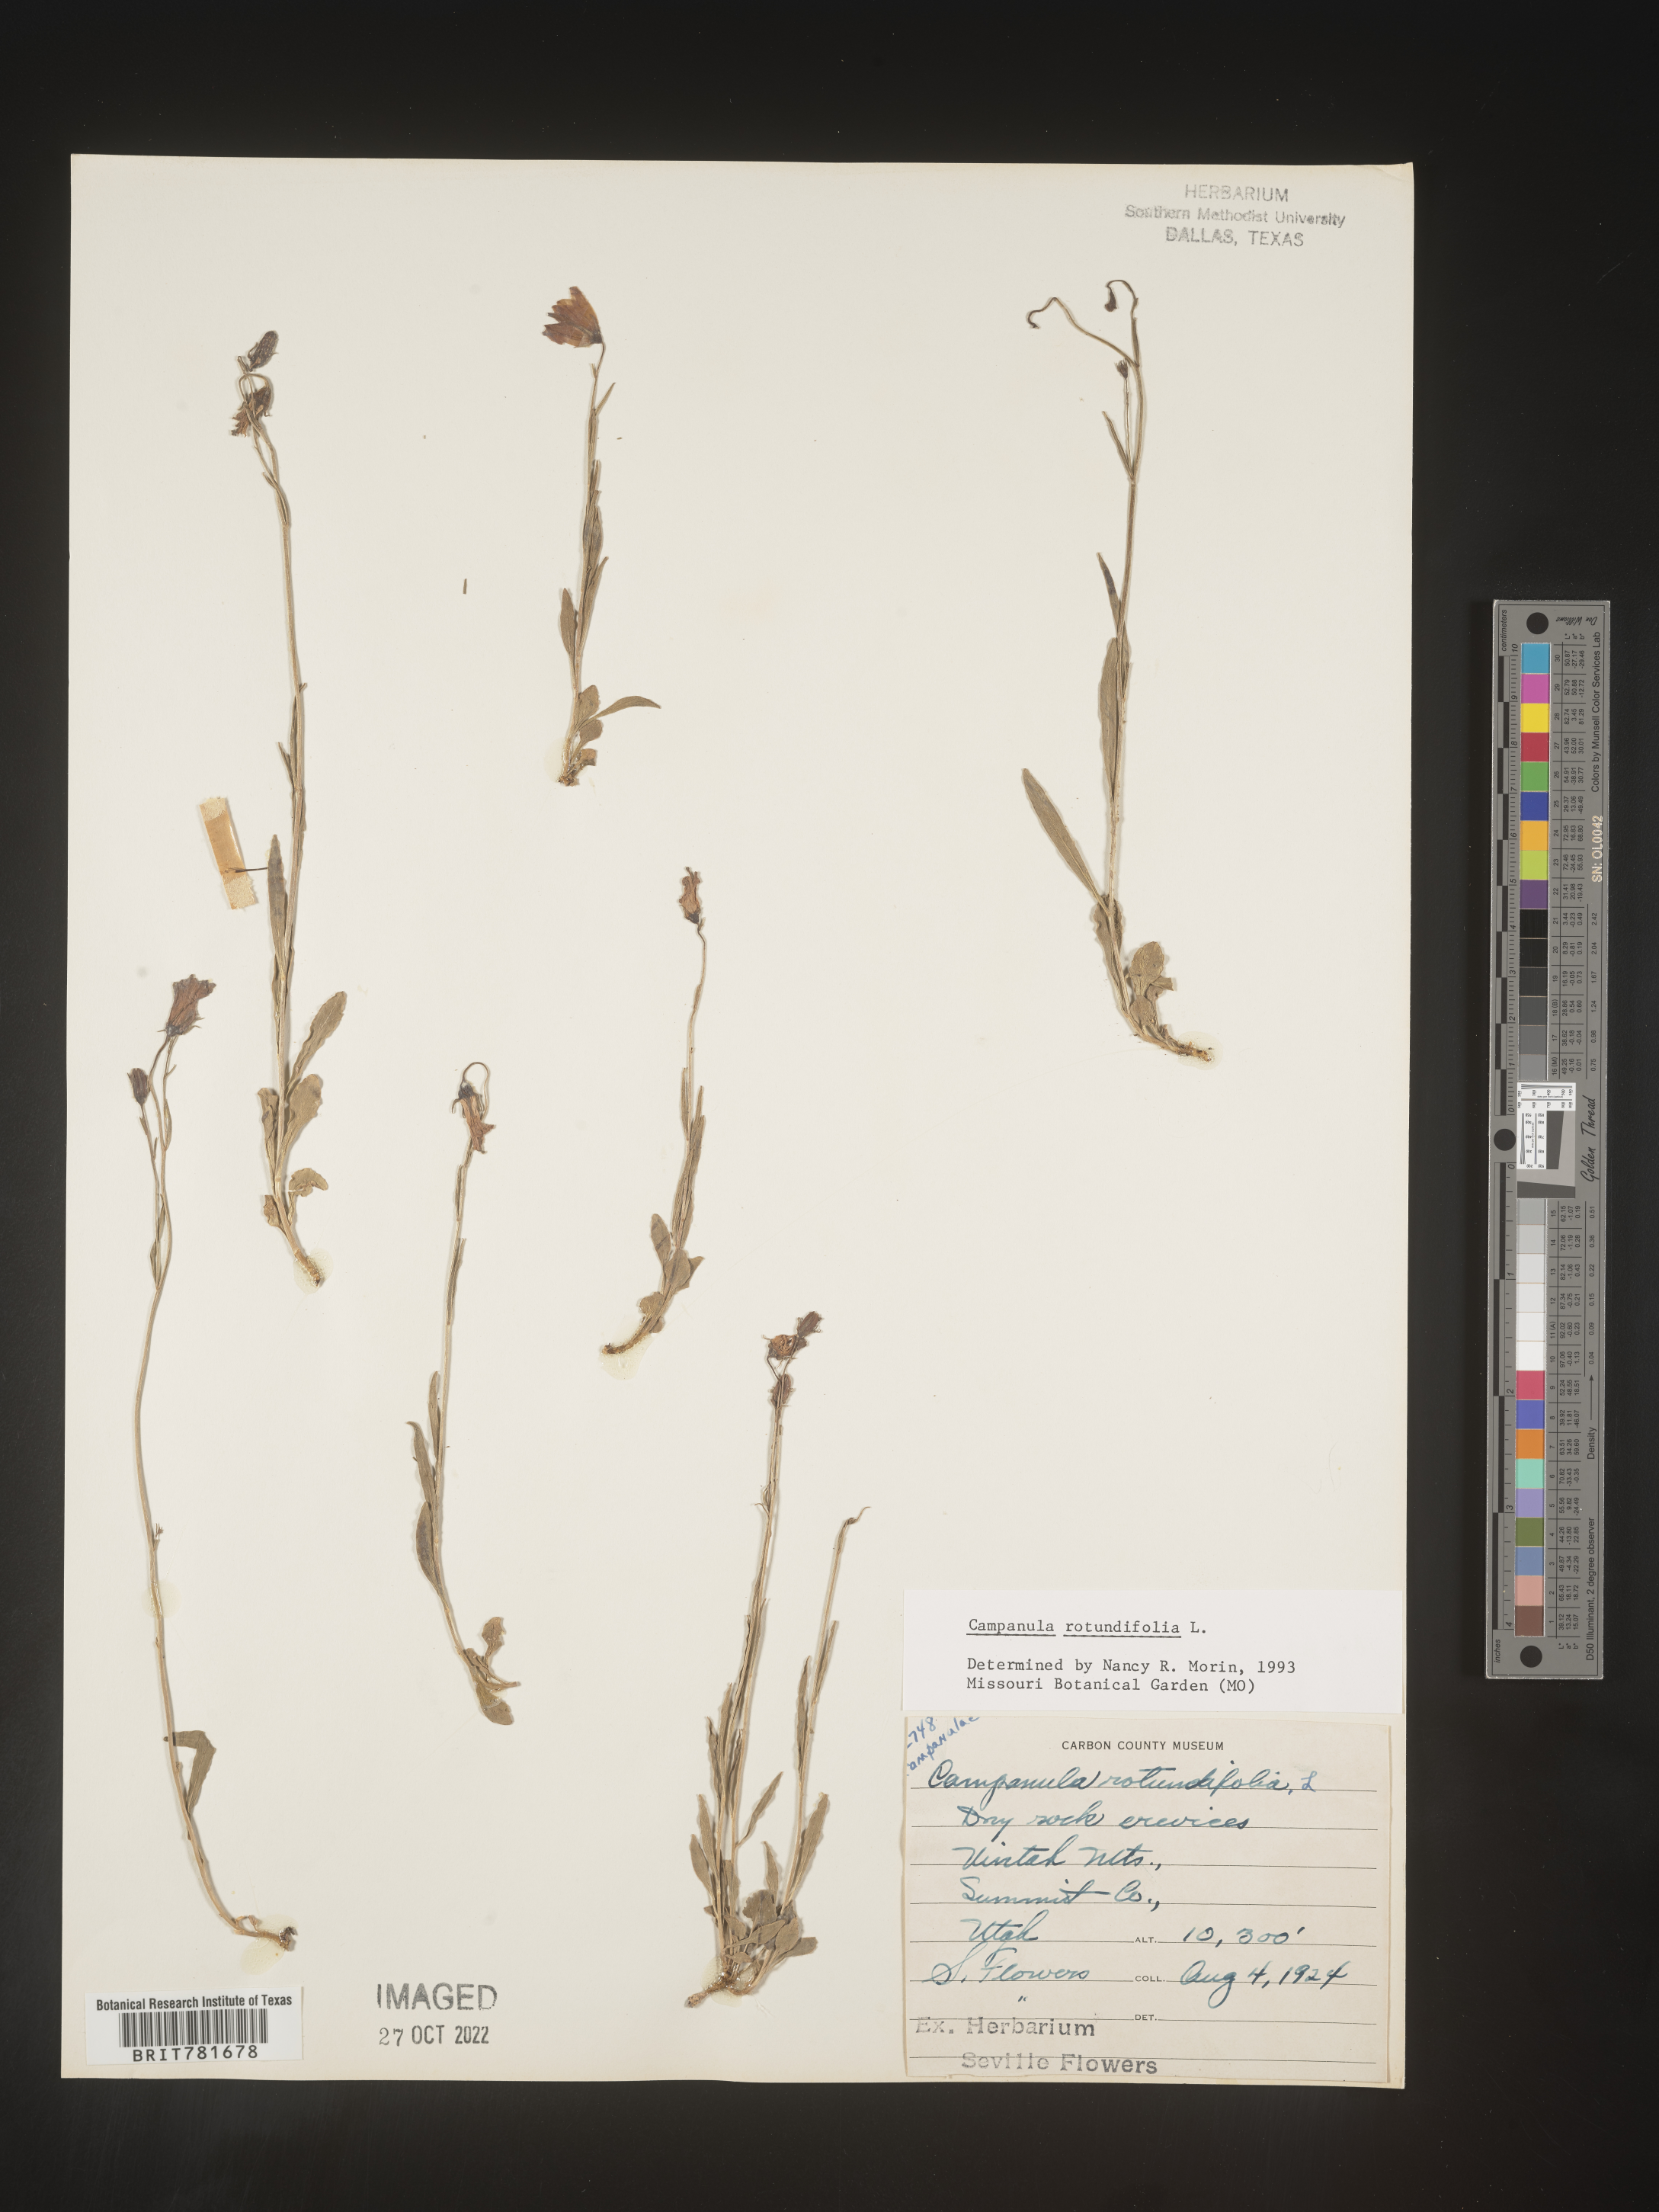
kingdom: Plantae
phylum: Tracheophyta
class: Magnoliopsida
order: Asterales
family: Campanulaceae
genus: Campanula
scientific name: Campanula rotundifolia
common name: Harebell
